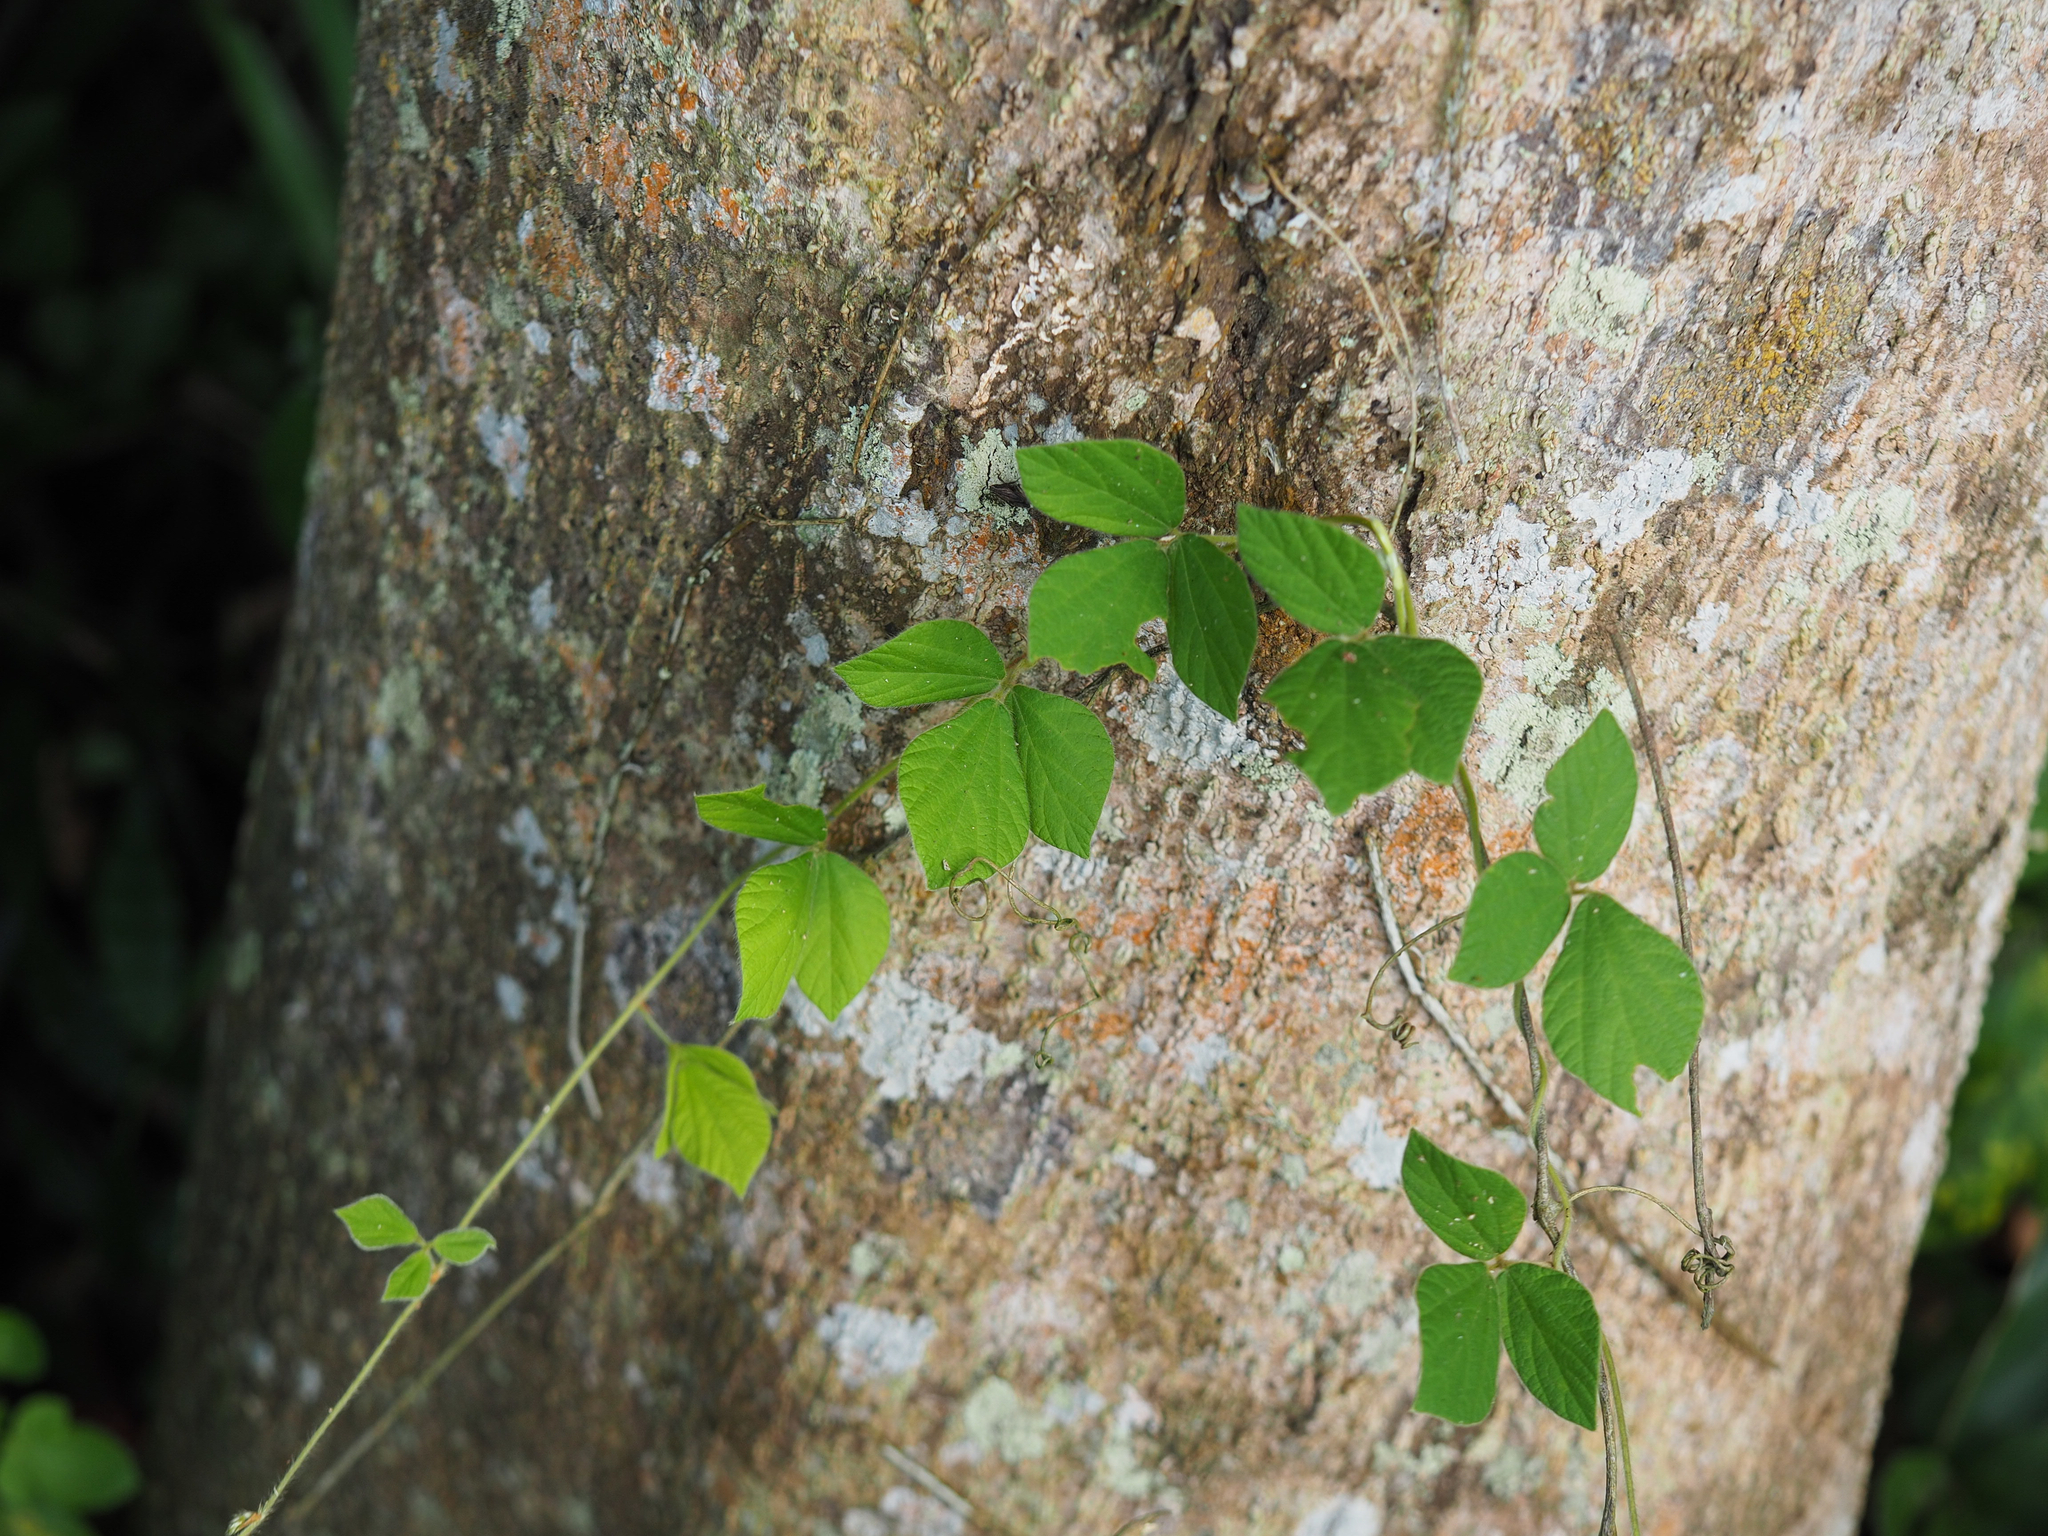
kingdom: Plantae
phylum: Tracheophyta
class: Magnoliopsida
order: Fabales
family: Fabaceae
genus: Rhynchosia
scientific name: Rhynchosia volubilis
